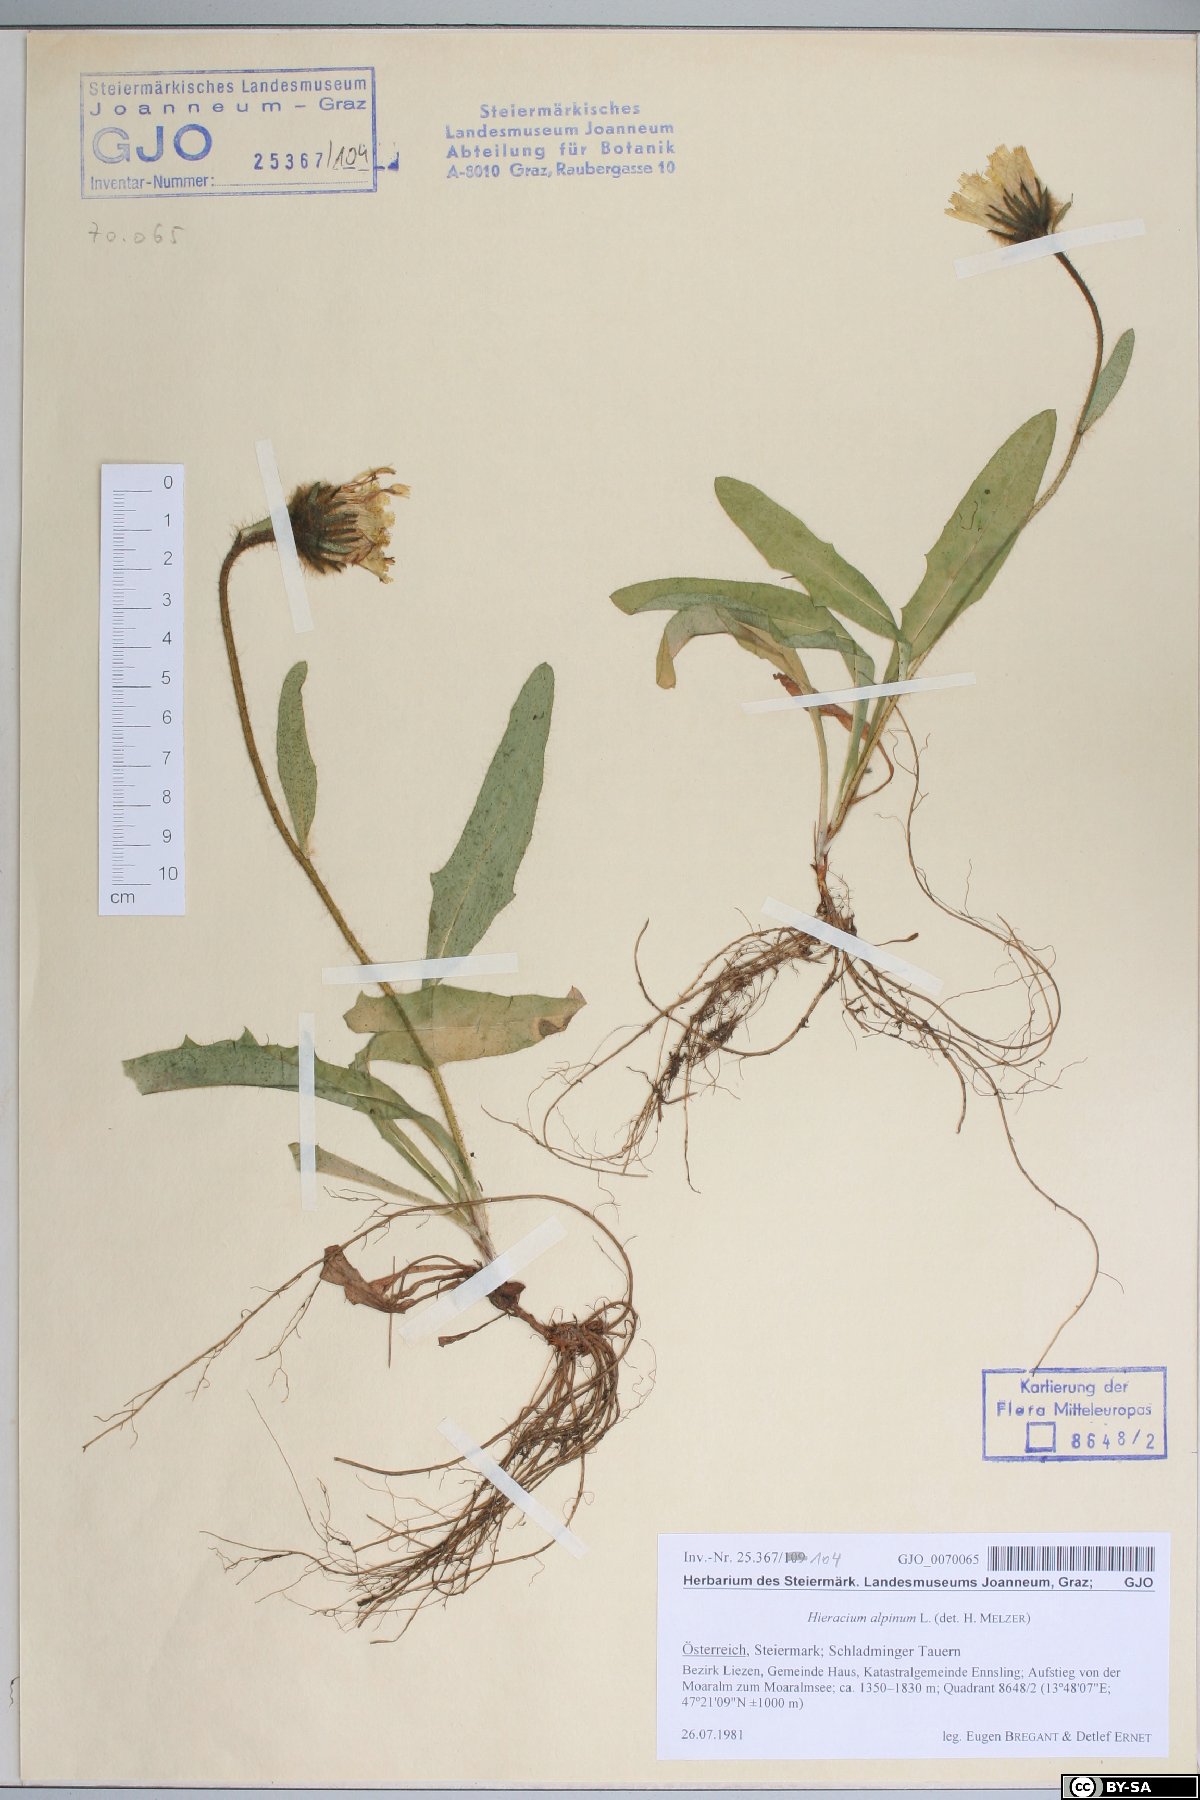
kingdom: Plantae
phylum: Tracheophyta
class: Magnoliopsida
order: Asterales
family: Asteraceae
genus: Hieracium
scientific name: Hieracium alpinum
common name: Alpine hawkweed
